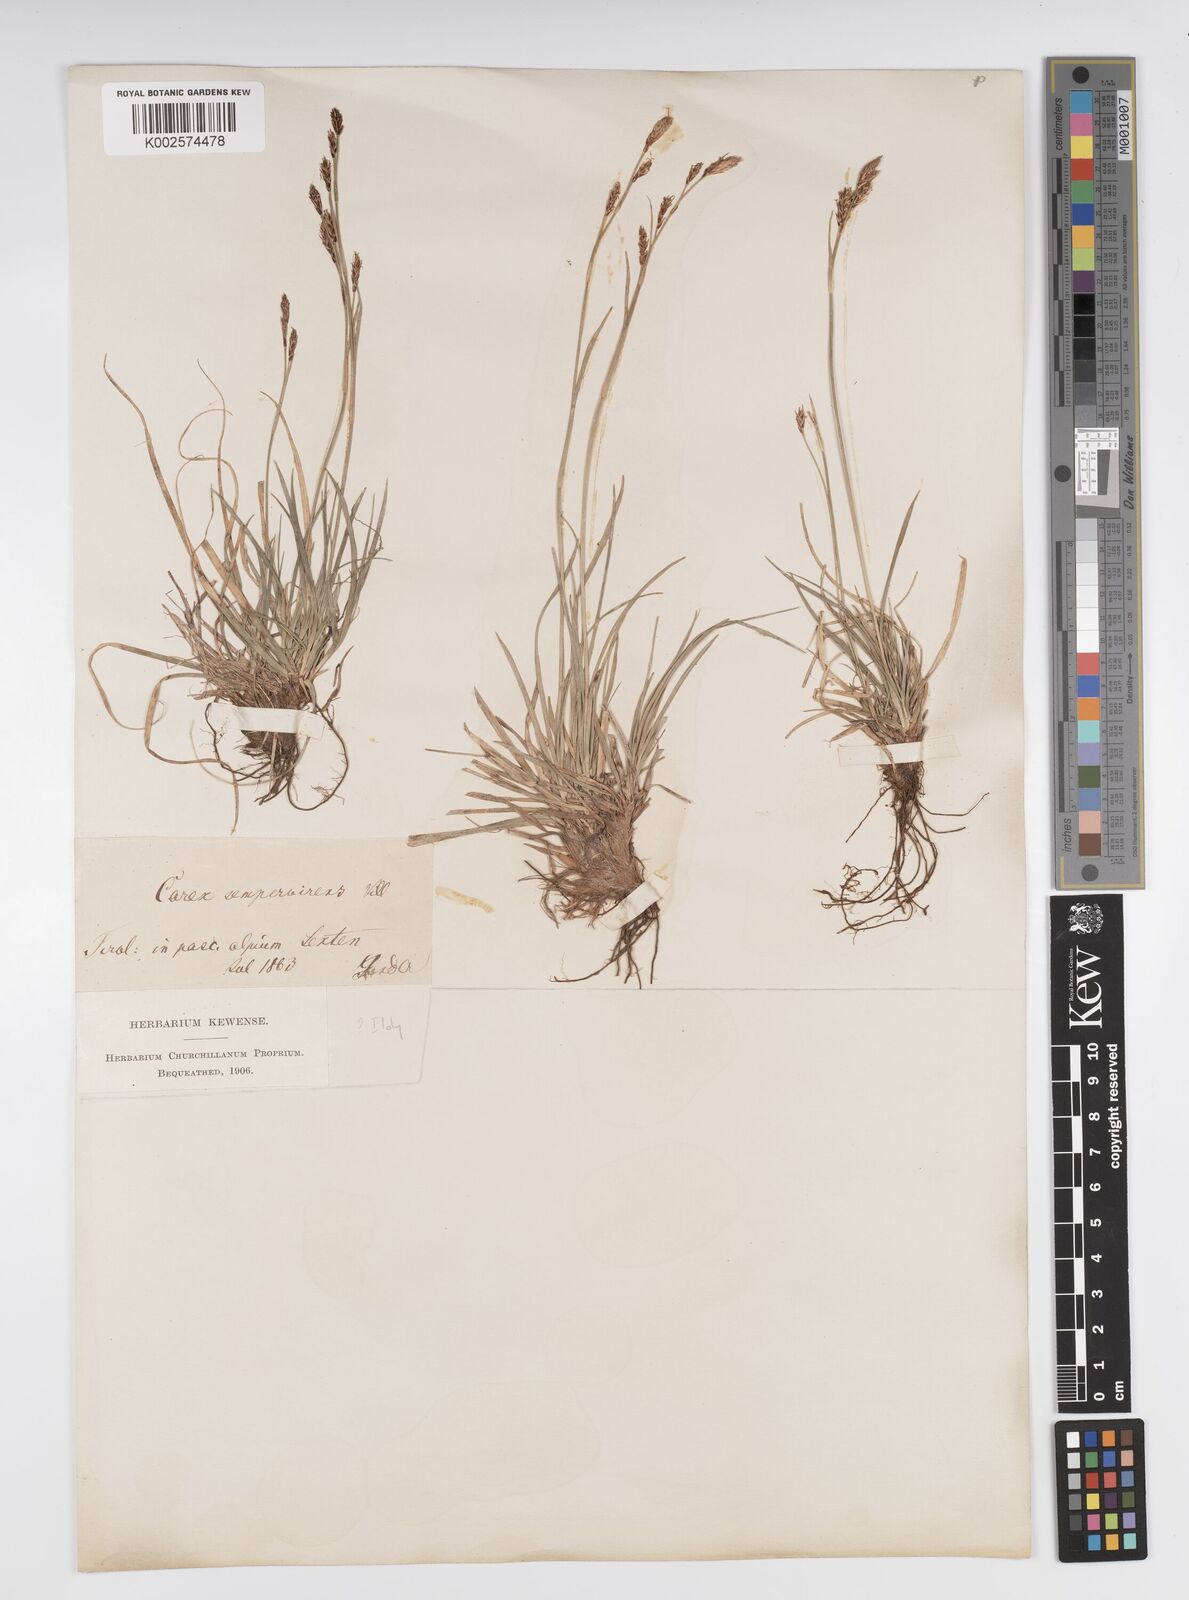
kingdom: Plantae
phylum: Tracheophyta
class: Liliopsida
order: Poales
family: Cyperaceae
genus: Carex
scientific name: Carex sempervirens
